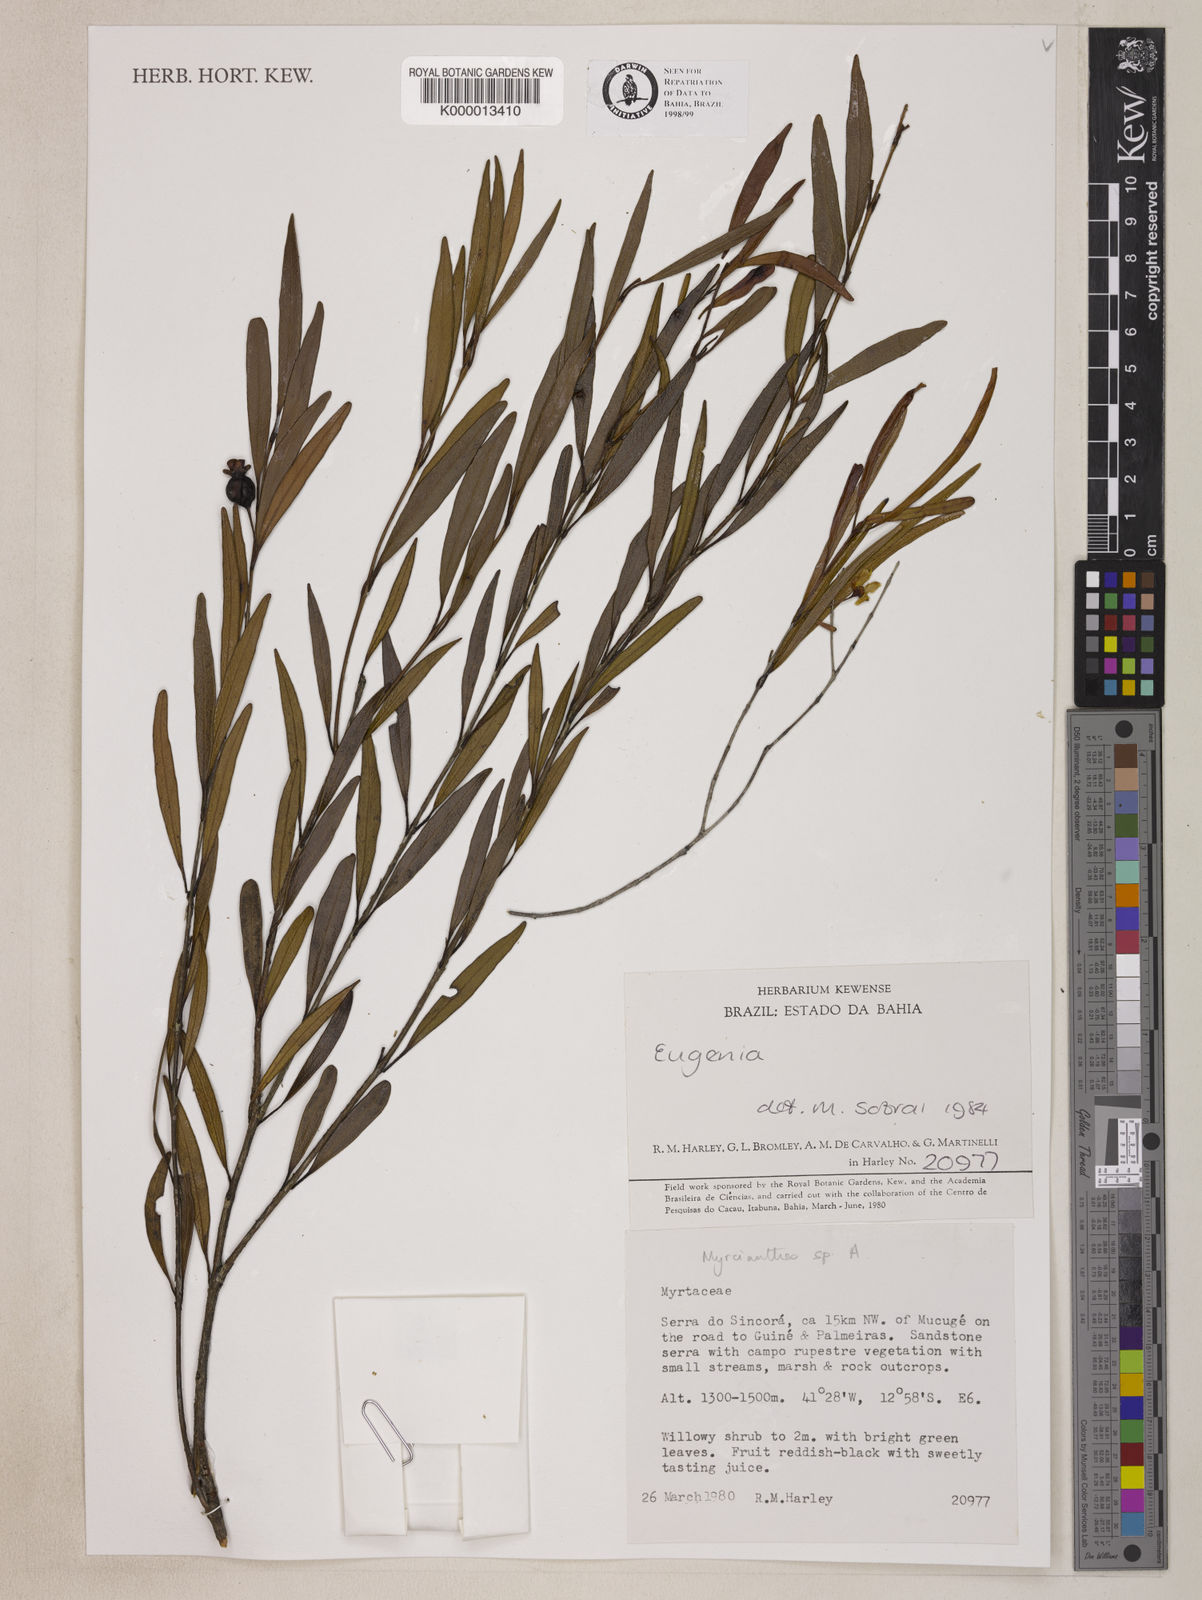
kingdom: Plantae
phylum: Tracheophyta
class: Magnoliopsida
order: Myrtales
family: Myrtaceae
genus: Myrcianthes
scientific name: Myrcianthes
